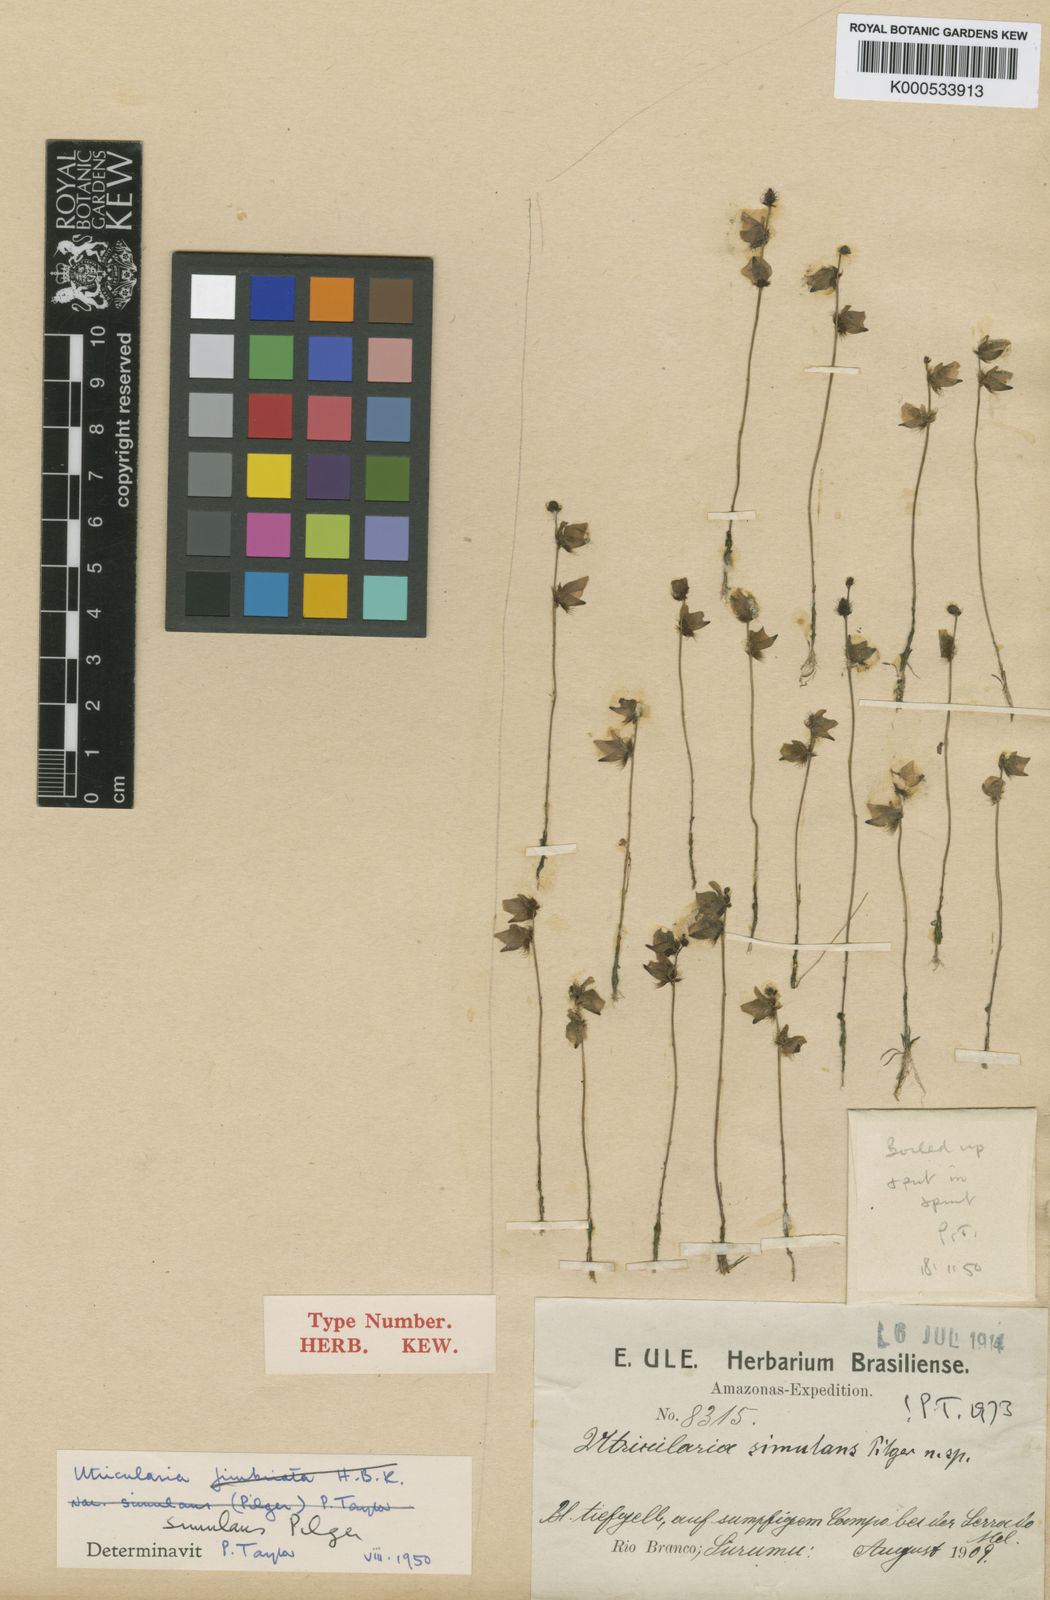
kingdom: Plantae
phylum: Tracheophyta
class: Magnoliopsida
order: Lamiales
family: Lentibulariaceae
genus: Utricularia
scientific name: Utricularia simulans
